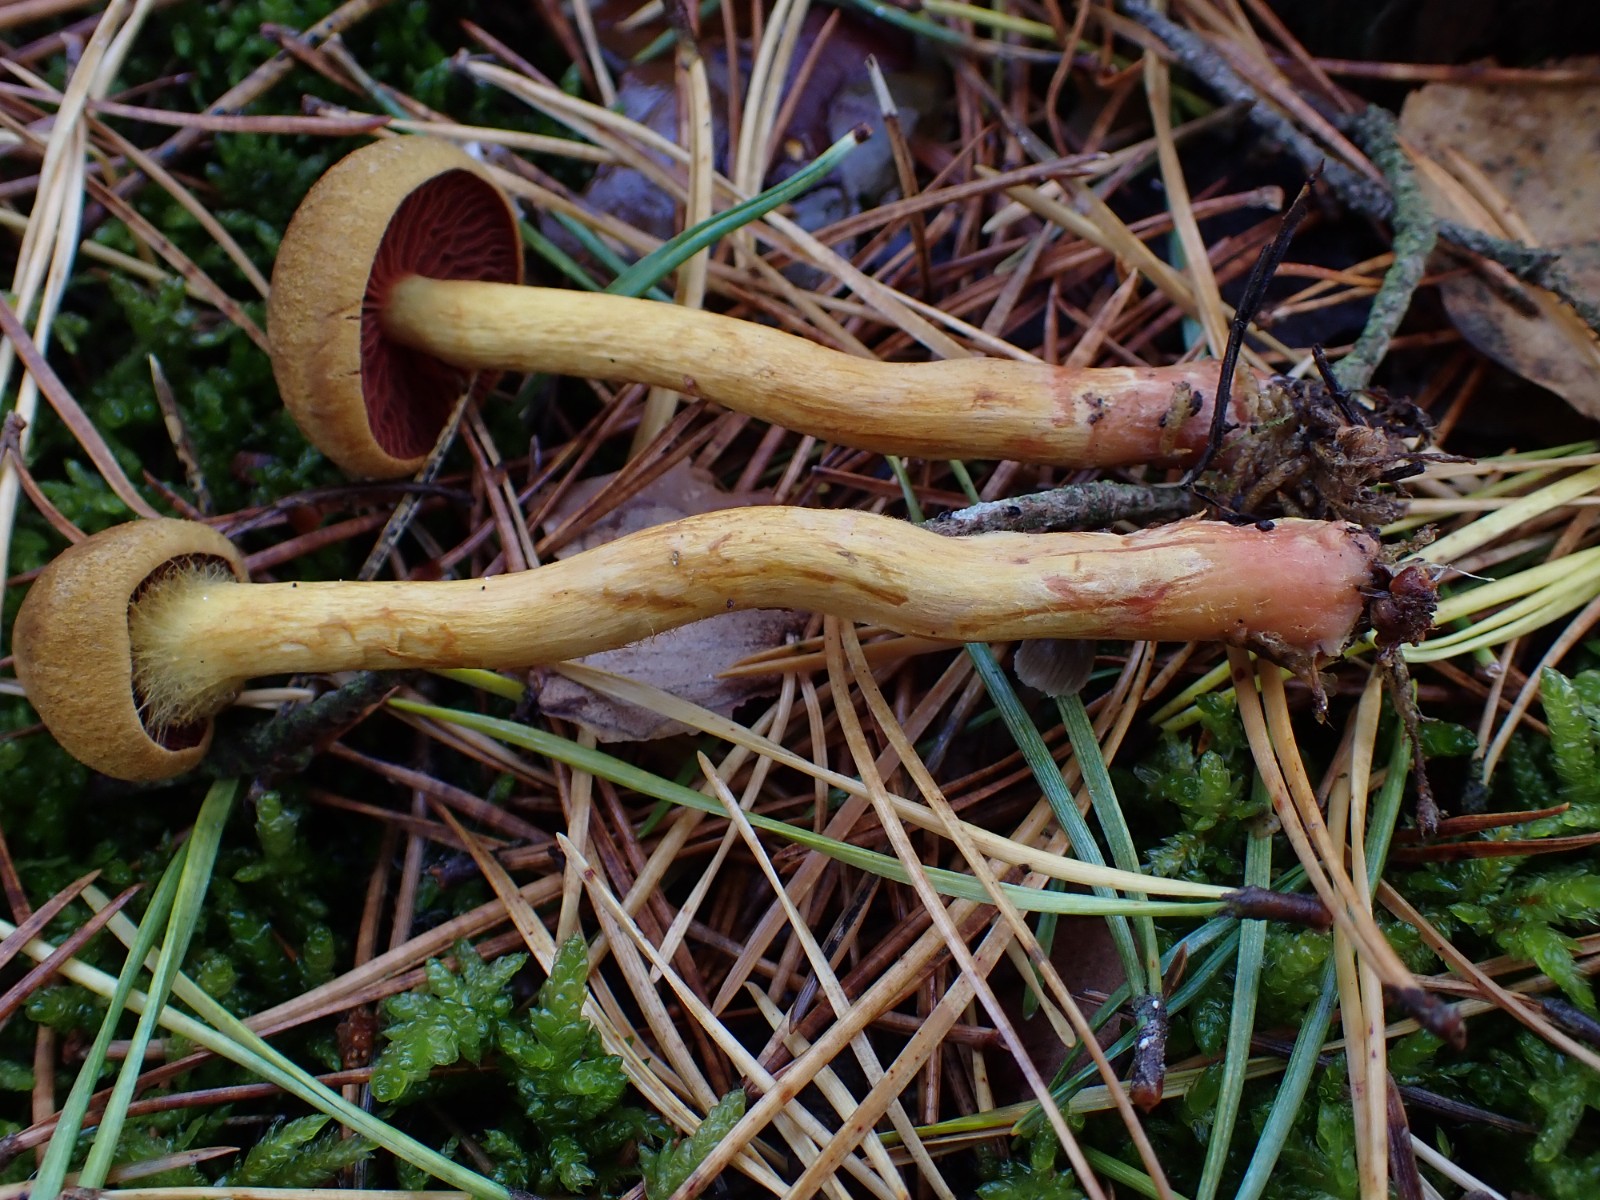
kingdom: Fungi
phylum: Basidiomycota
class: Agaricomycetes
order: Agaricales
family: Cortinariaceae
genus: Cortinarius
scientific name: Cortinarius
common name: cinnoberbladet slørhat
